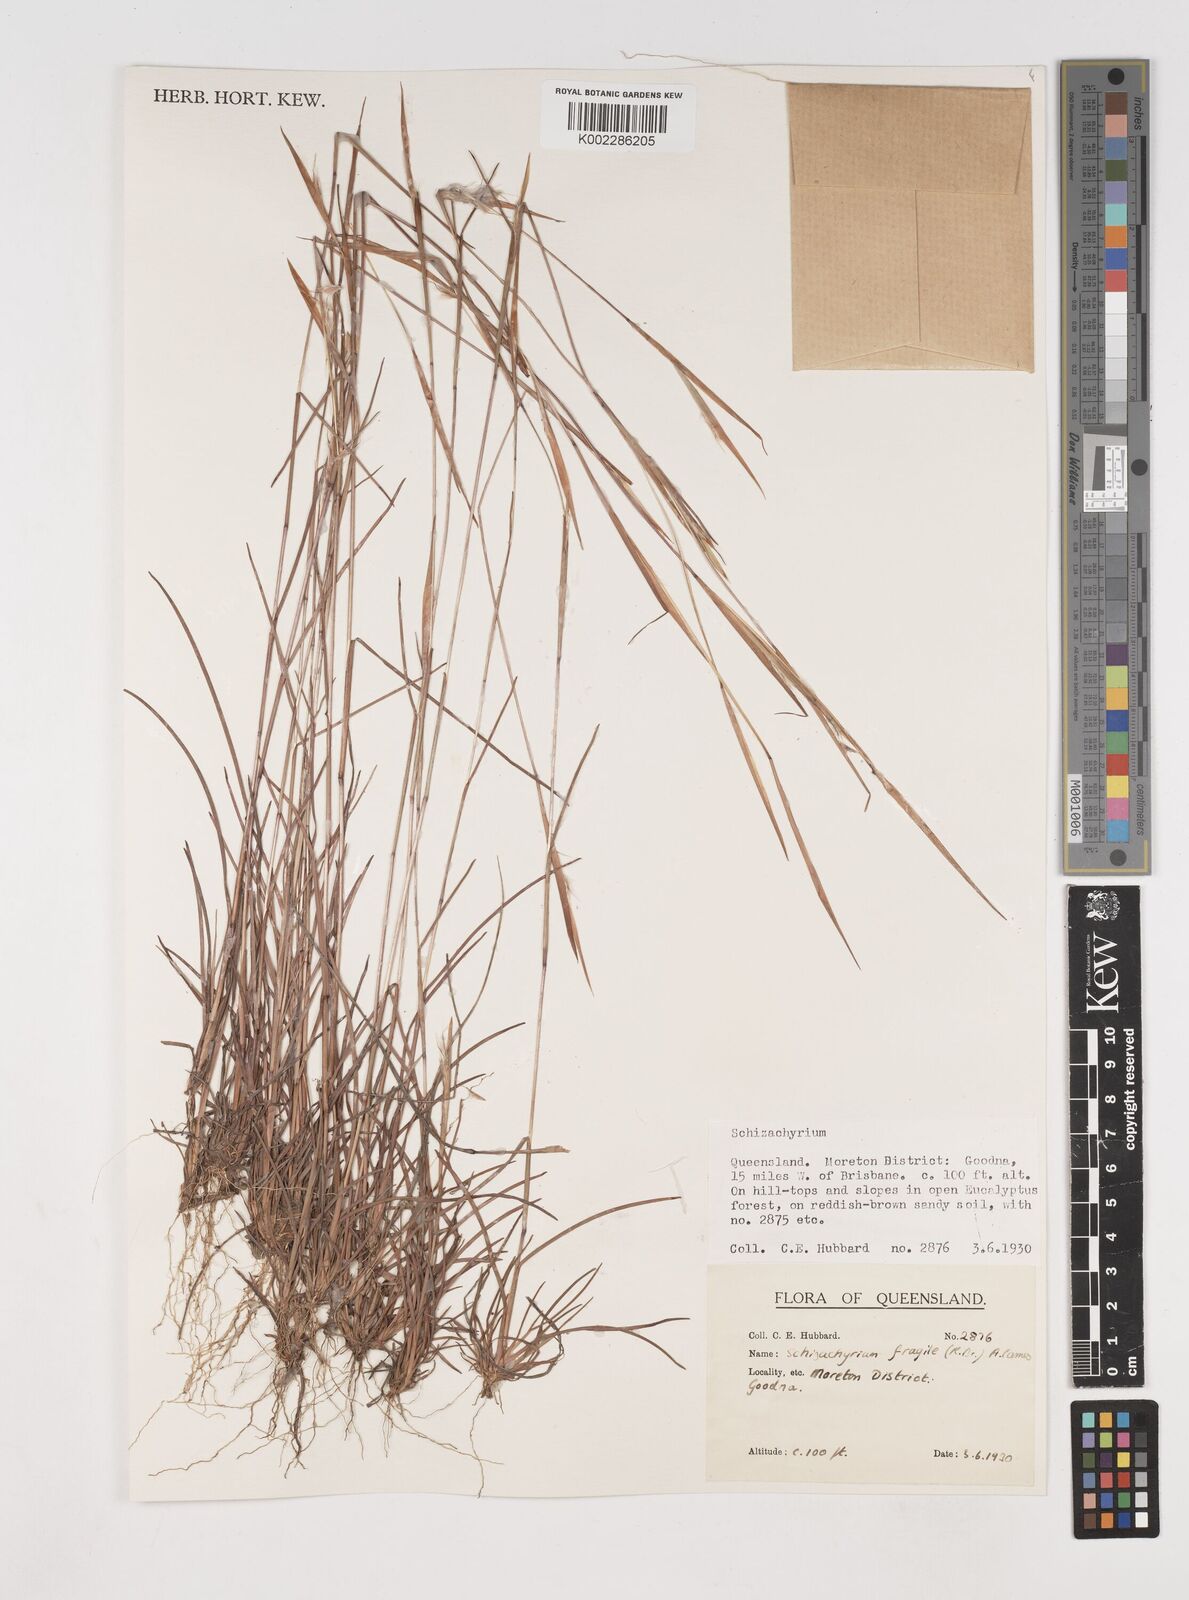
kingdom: Plantae
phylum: Tracheophyta
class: Liliopsida
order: Poales
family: Poaceae
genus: Schizachyrium
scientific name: Schizachyrium fragile
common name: Red spathe grass
